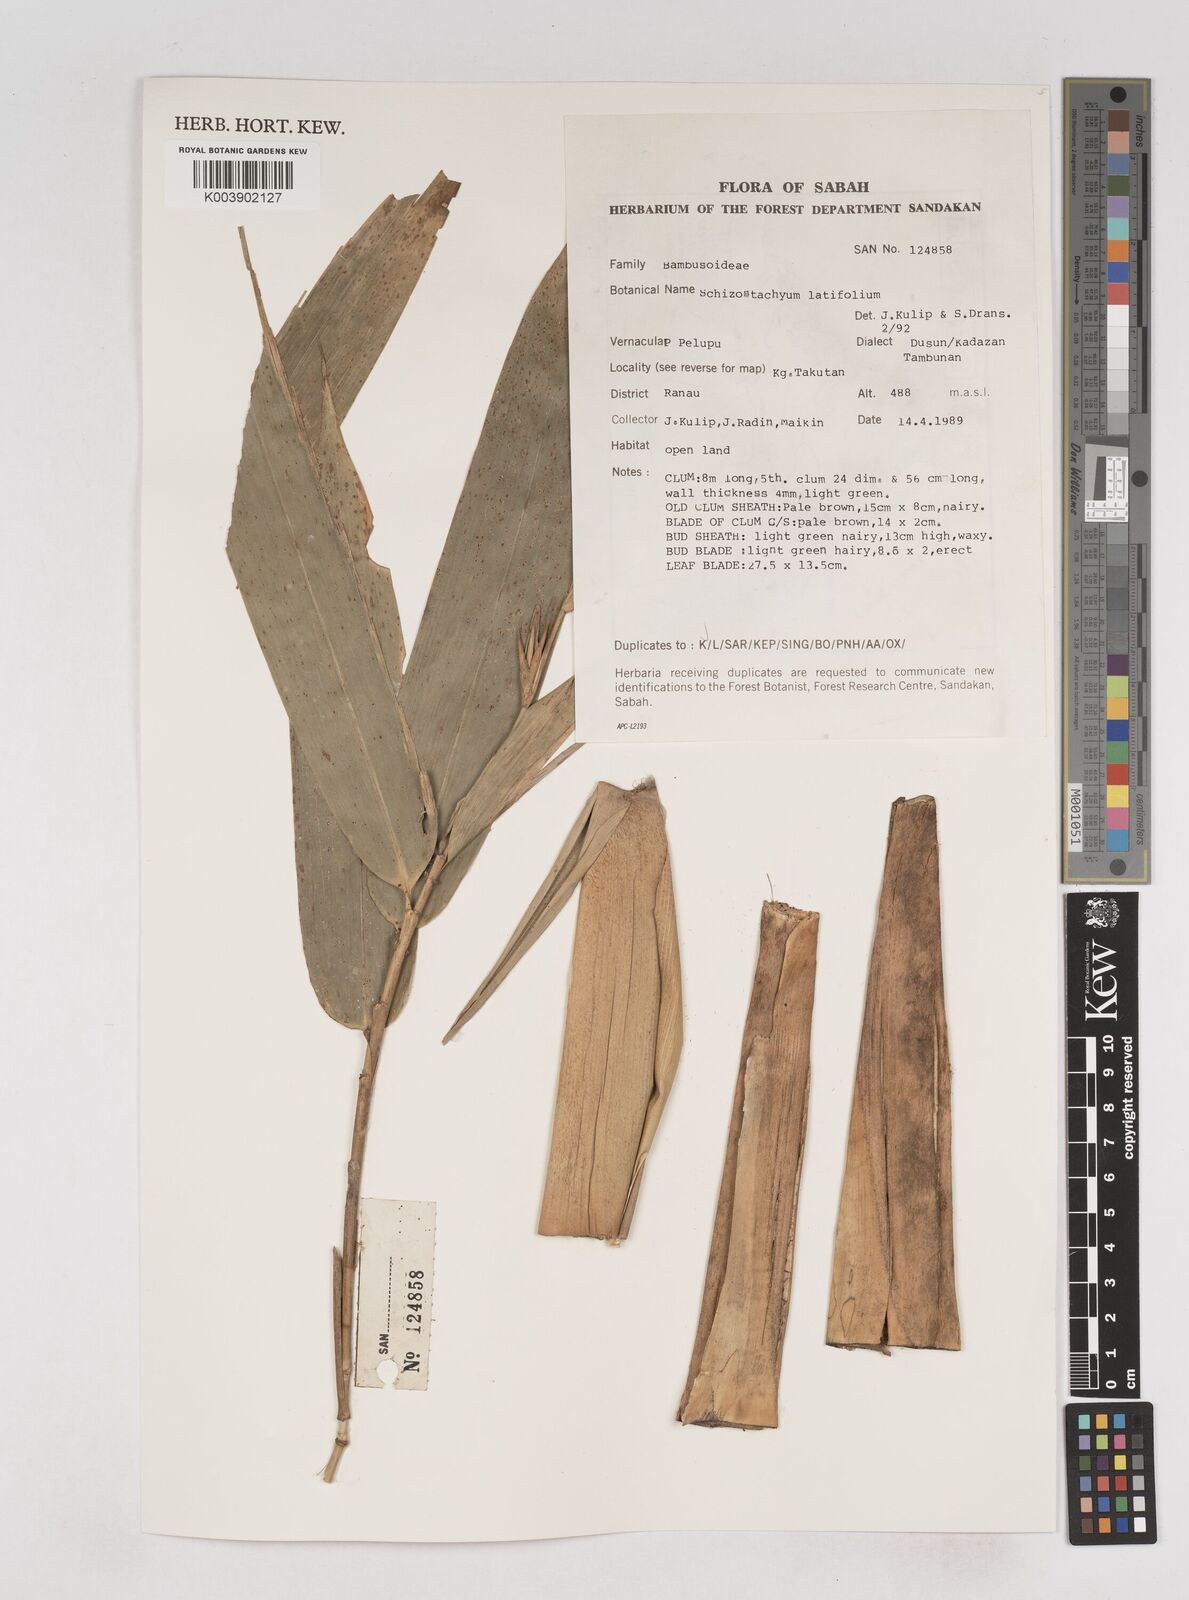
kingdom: Plantae
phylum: Tracheophyta
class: Liliopsida
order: Poales
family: Poaceae
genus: Schizostachyum
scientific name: Schizostachyum
